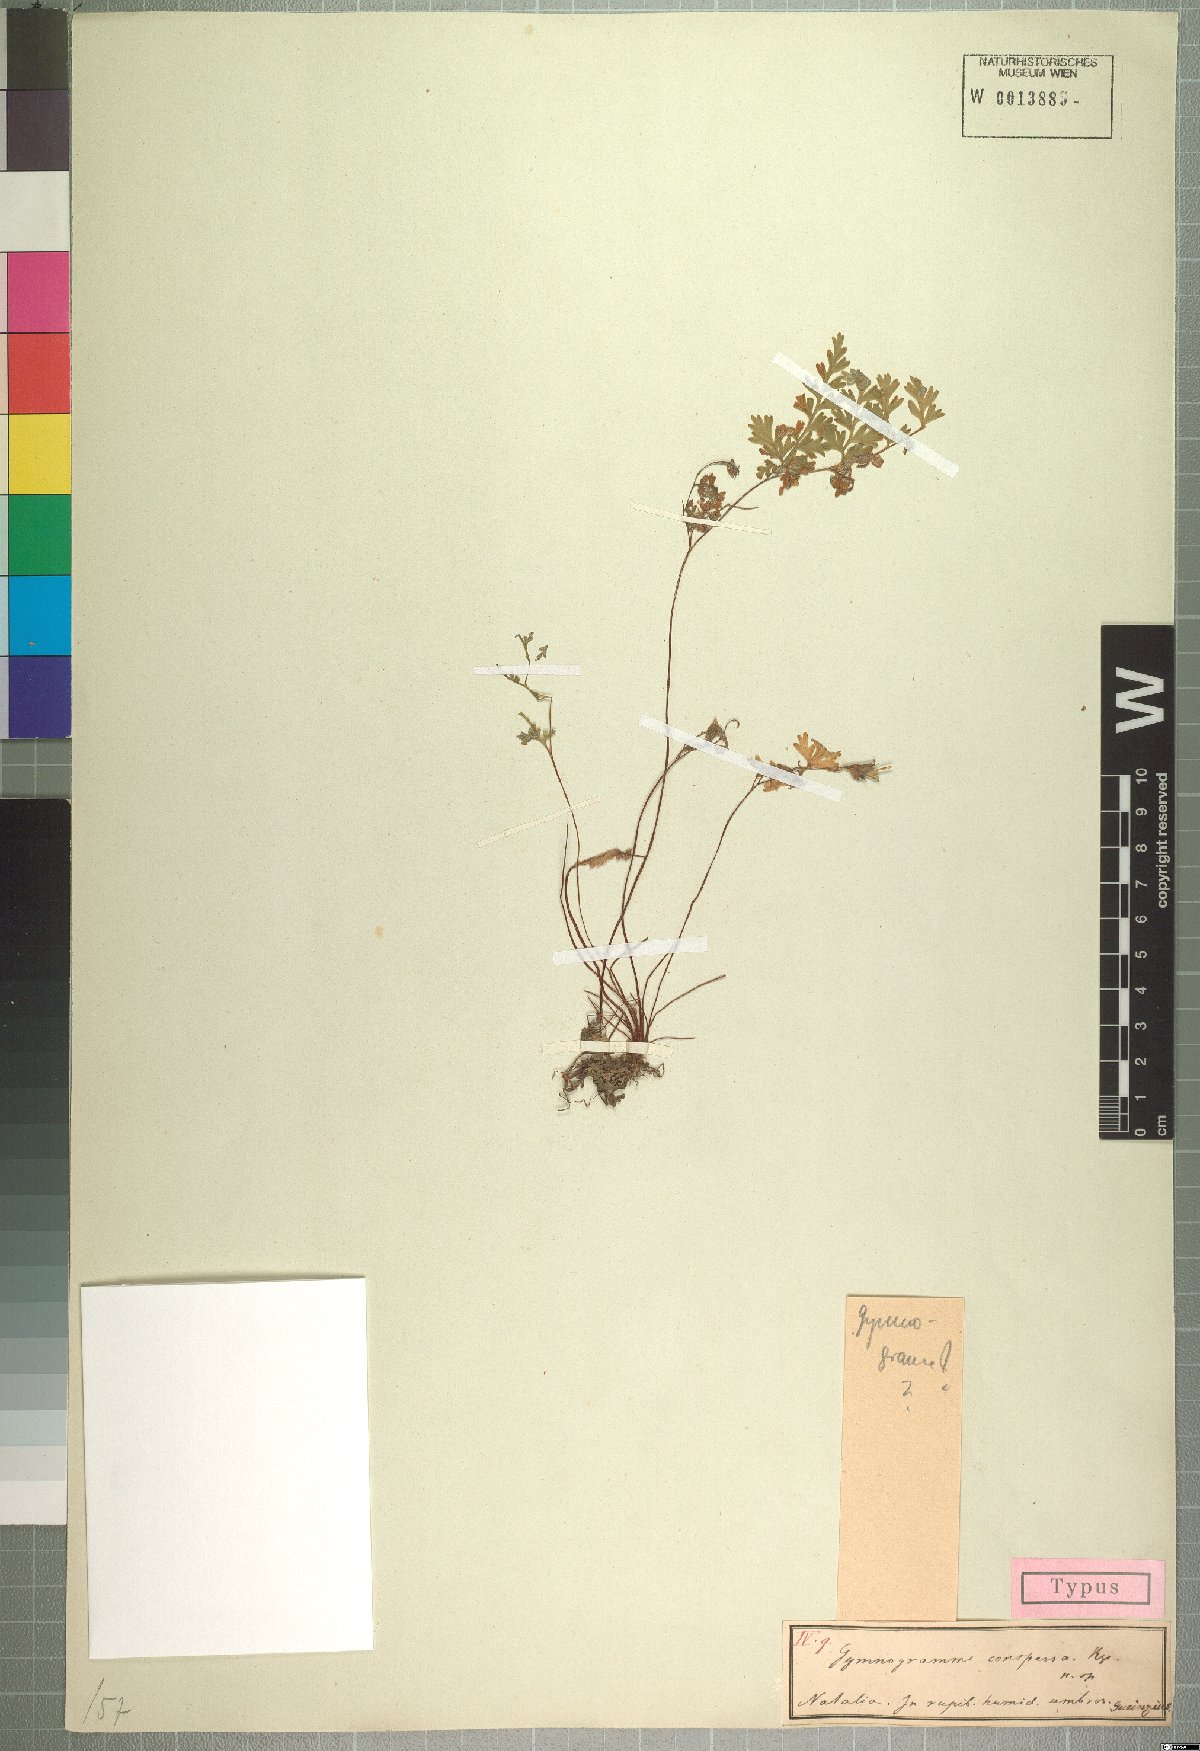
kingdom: Plantae
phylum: Tracheophyta
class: Polypodiopsida
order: Polypodiales
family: Pteridaceae
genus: Cerosora
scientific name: Cerosora argentea
